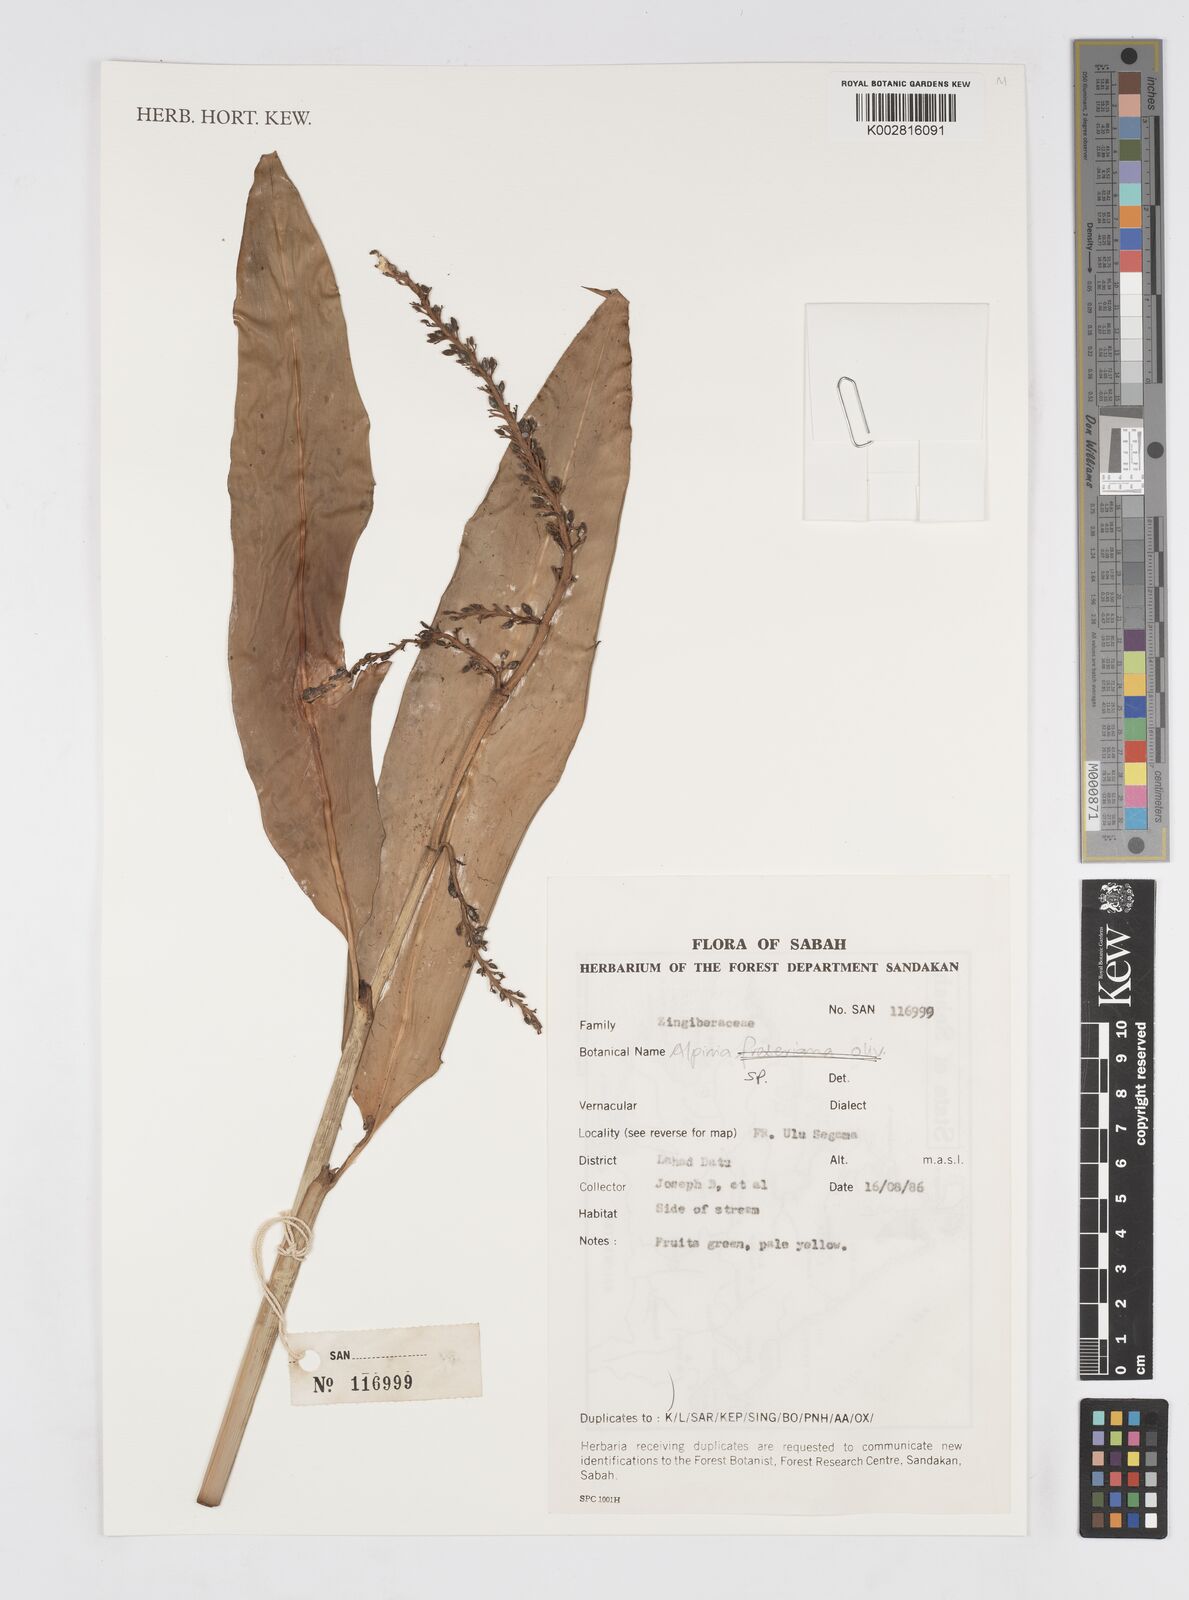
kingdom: Plantae
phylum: Tracheophyta
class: Liliopsida
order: Zingiberales
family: Zingiberaceae
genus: Alpinia
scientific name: Alpinia
